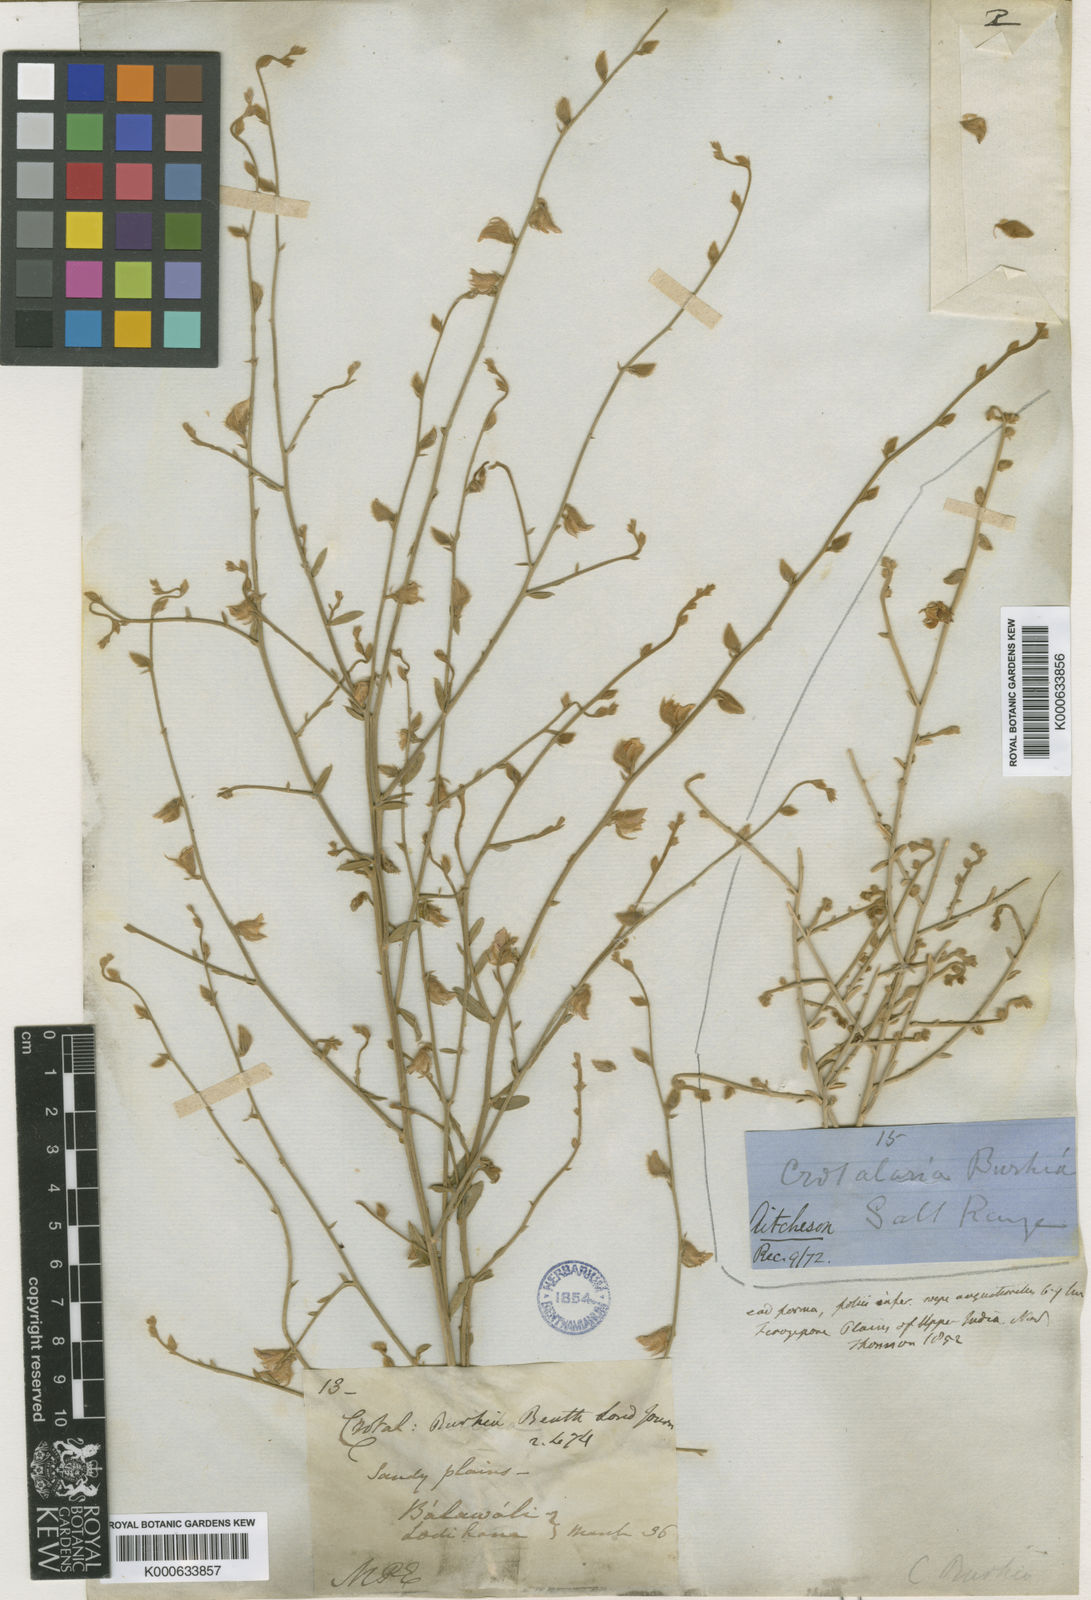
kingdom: Plantae
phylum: Tracheophyta
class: Magnoliopsida
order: Fabales
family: Fabaceae
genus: Crotalaria
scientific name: Crotalaria burhia
